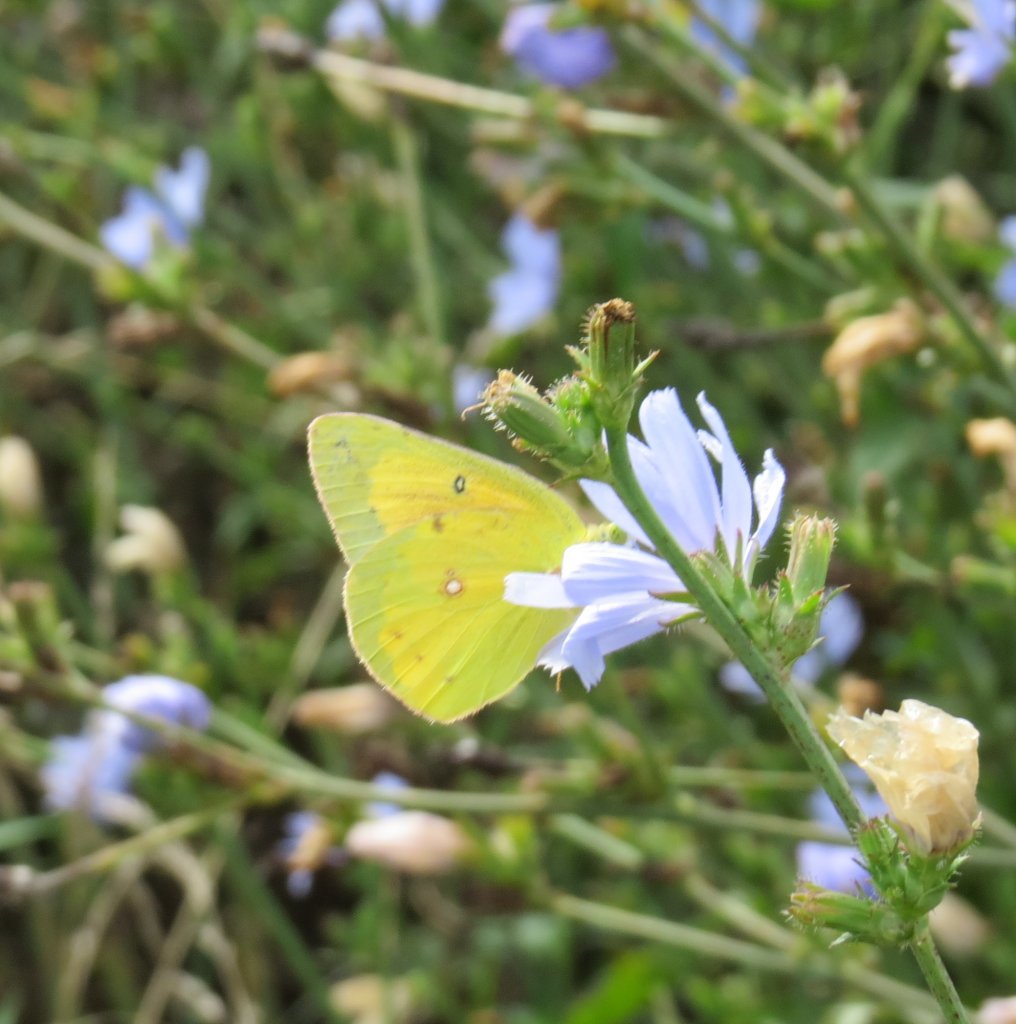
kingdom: Animalia
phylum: Arthropoda
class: Insecta
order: Lepidoptera
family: Pieridae
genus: Colias
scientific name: Colias eurytheme
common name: Orange Sulphur
